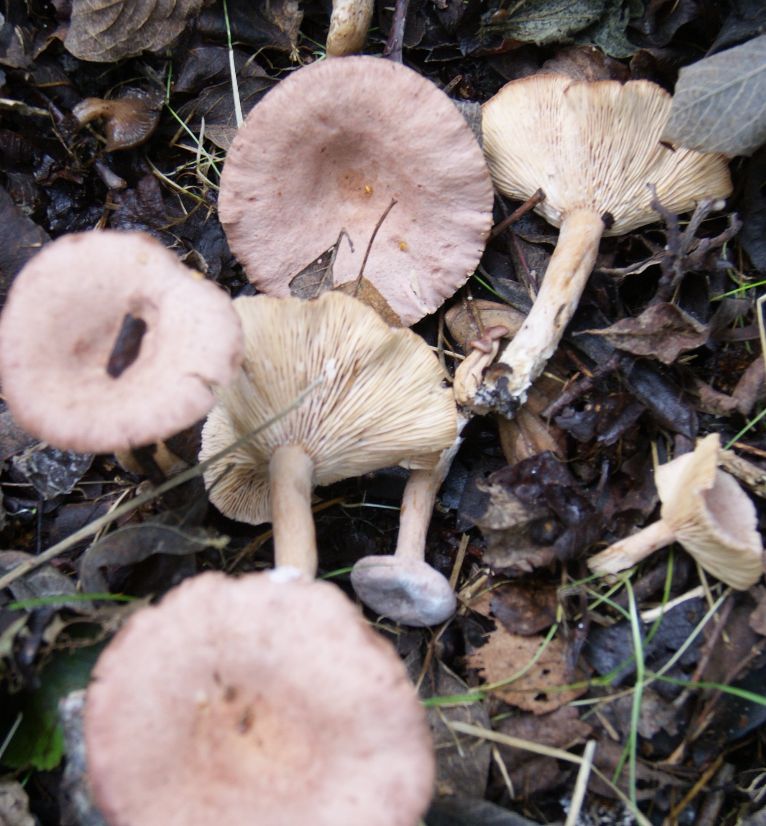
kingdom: Fungi
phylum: Basidiomycota
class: Agaricomycetes
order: Russulales
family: Russulaceae
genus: Lactarius
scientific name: Lactarius lilacinus
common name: lilla mælkehat
